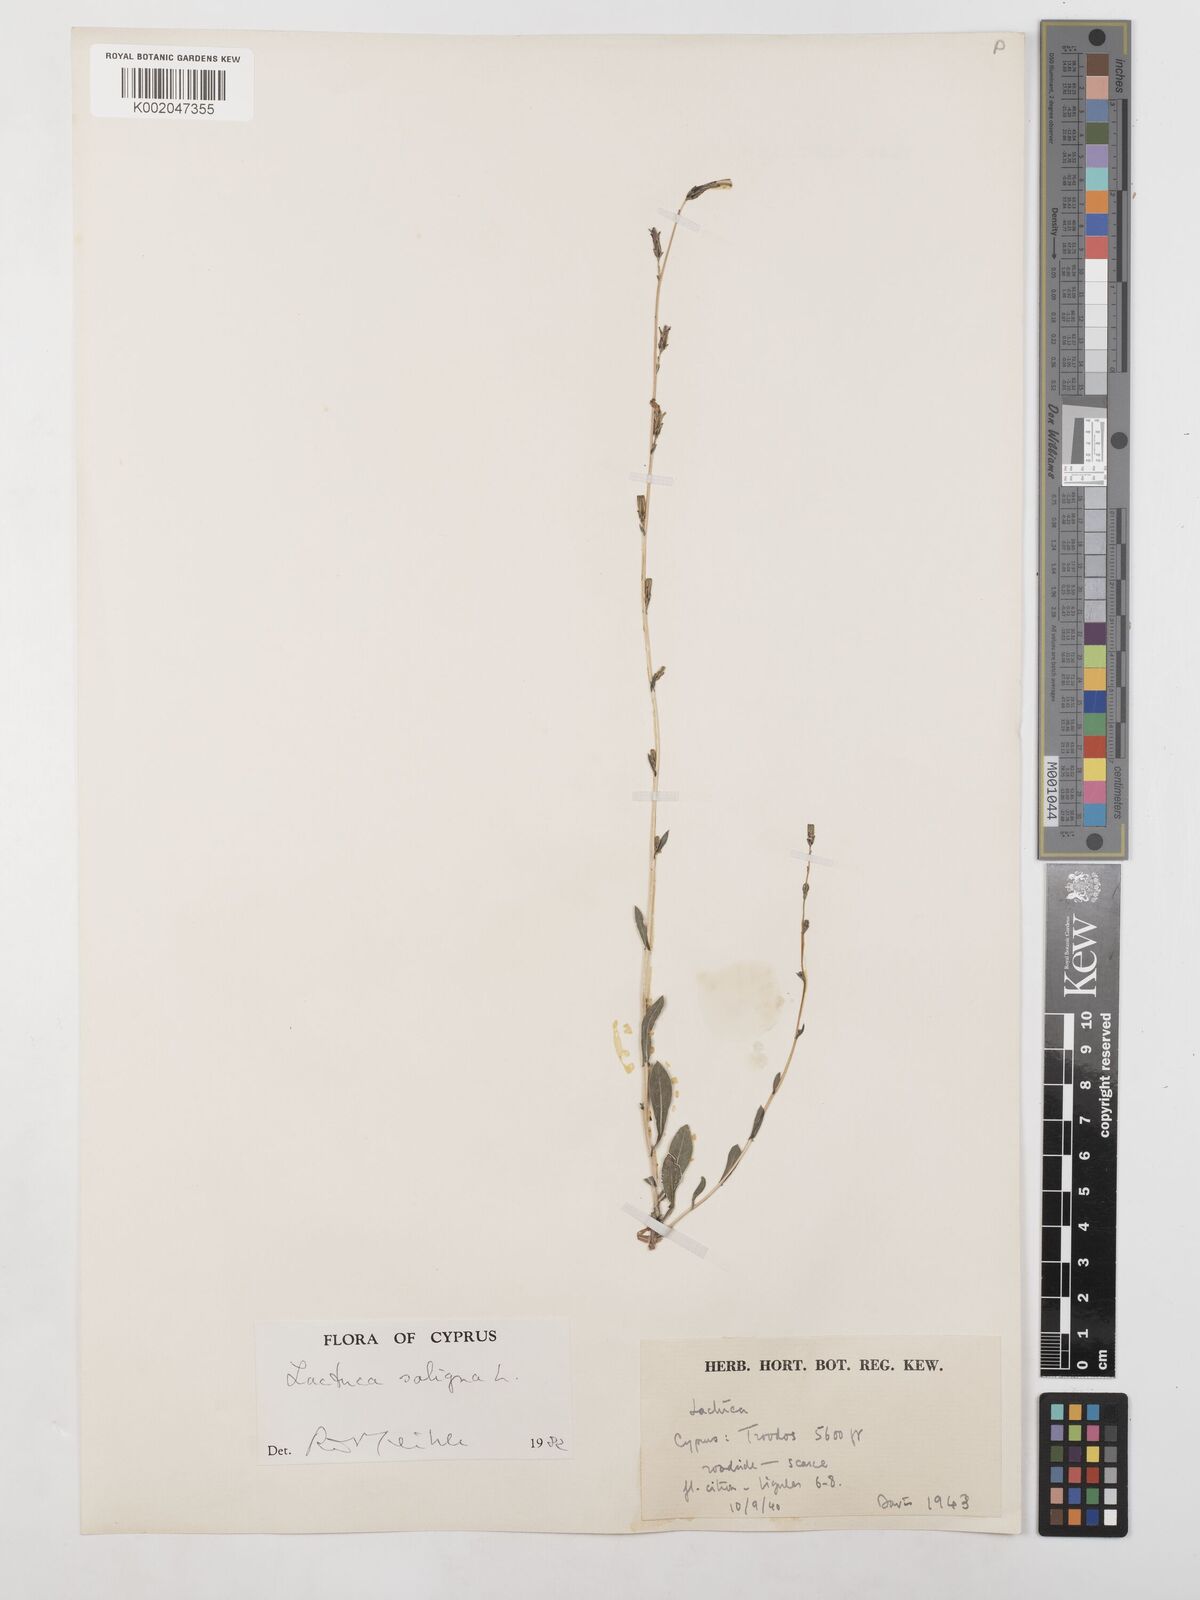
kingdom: Plantae
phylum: Tracheophyta
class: Magnoliopsida
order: Asterales
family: Asteraceae
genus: Lactuca
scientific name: Lactuca saligna
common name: Wild lettuce
